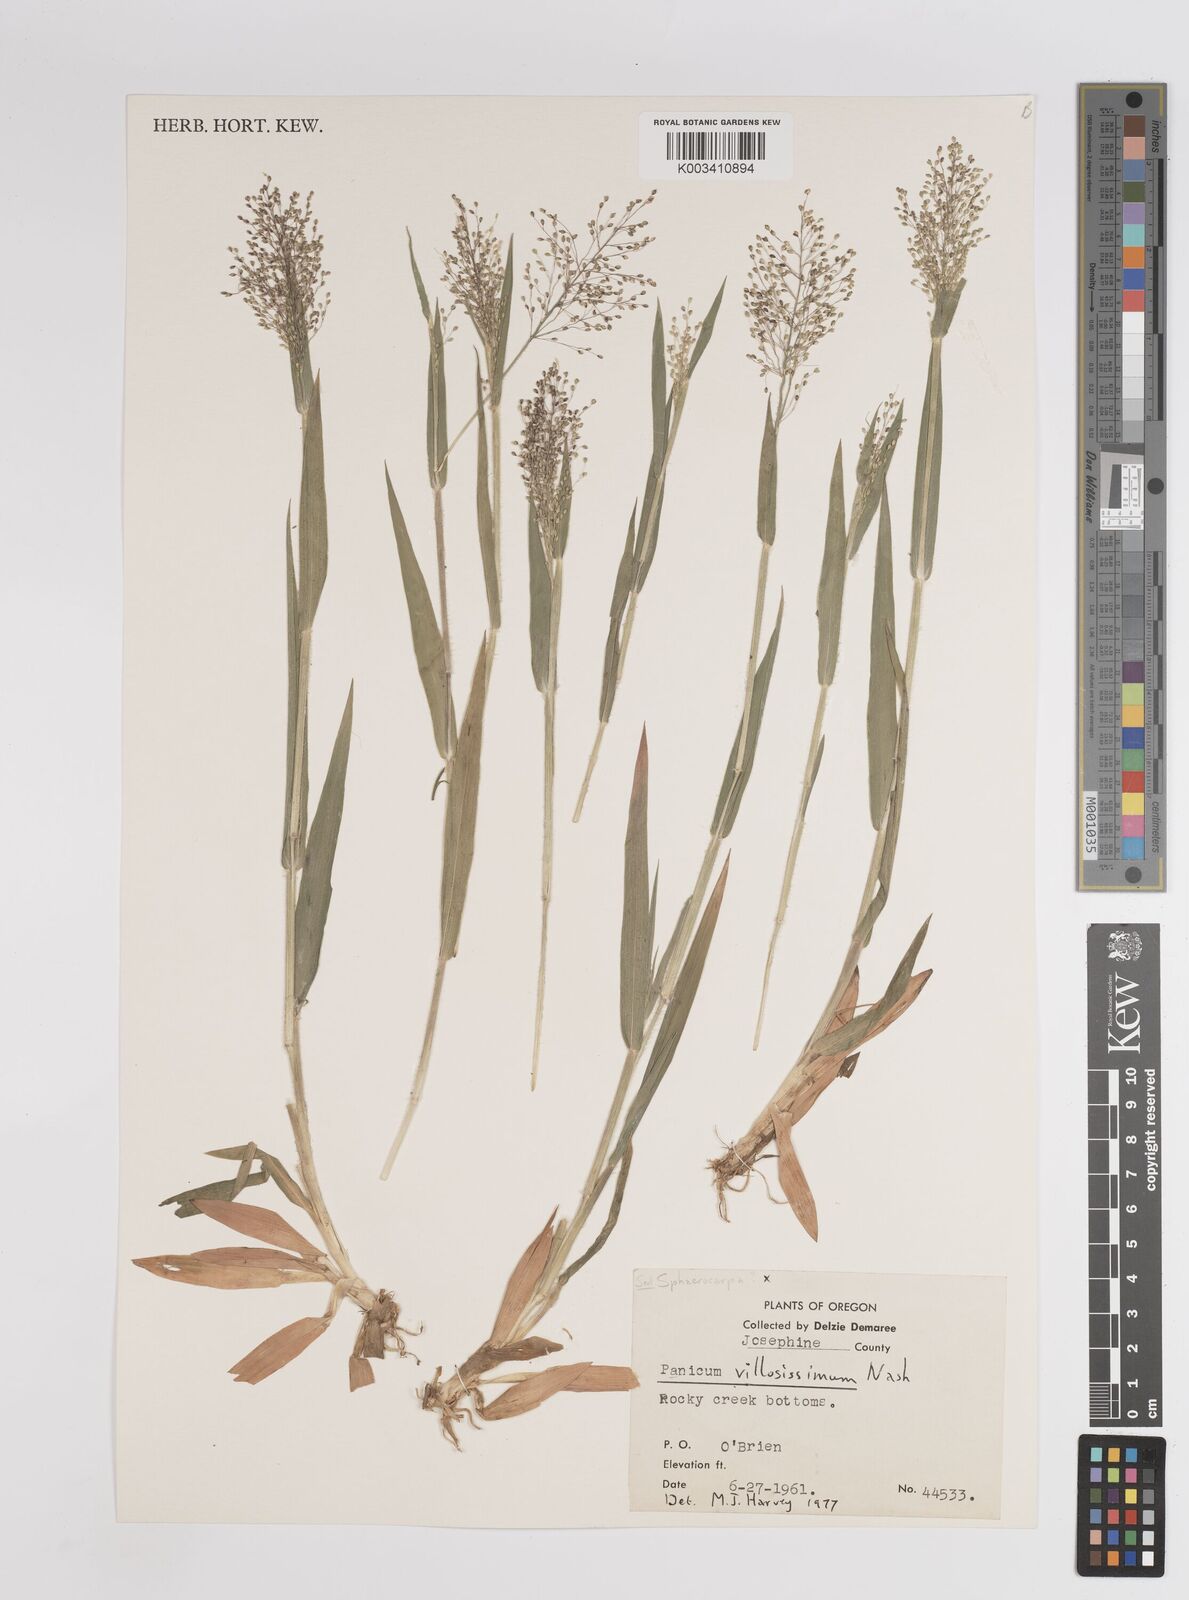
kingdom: Plantae
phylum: Tracheophyta
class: Liliopsida
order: Poales
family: Poaceae
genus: Dichanthelium
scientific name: Dichanthelium villosissimum
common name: White-haired panicgrass
